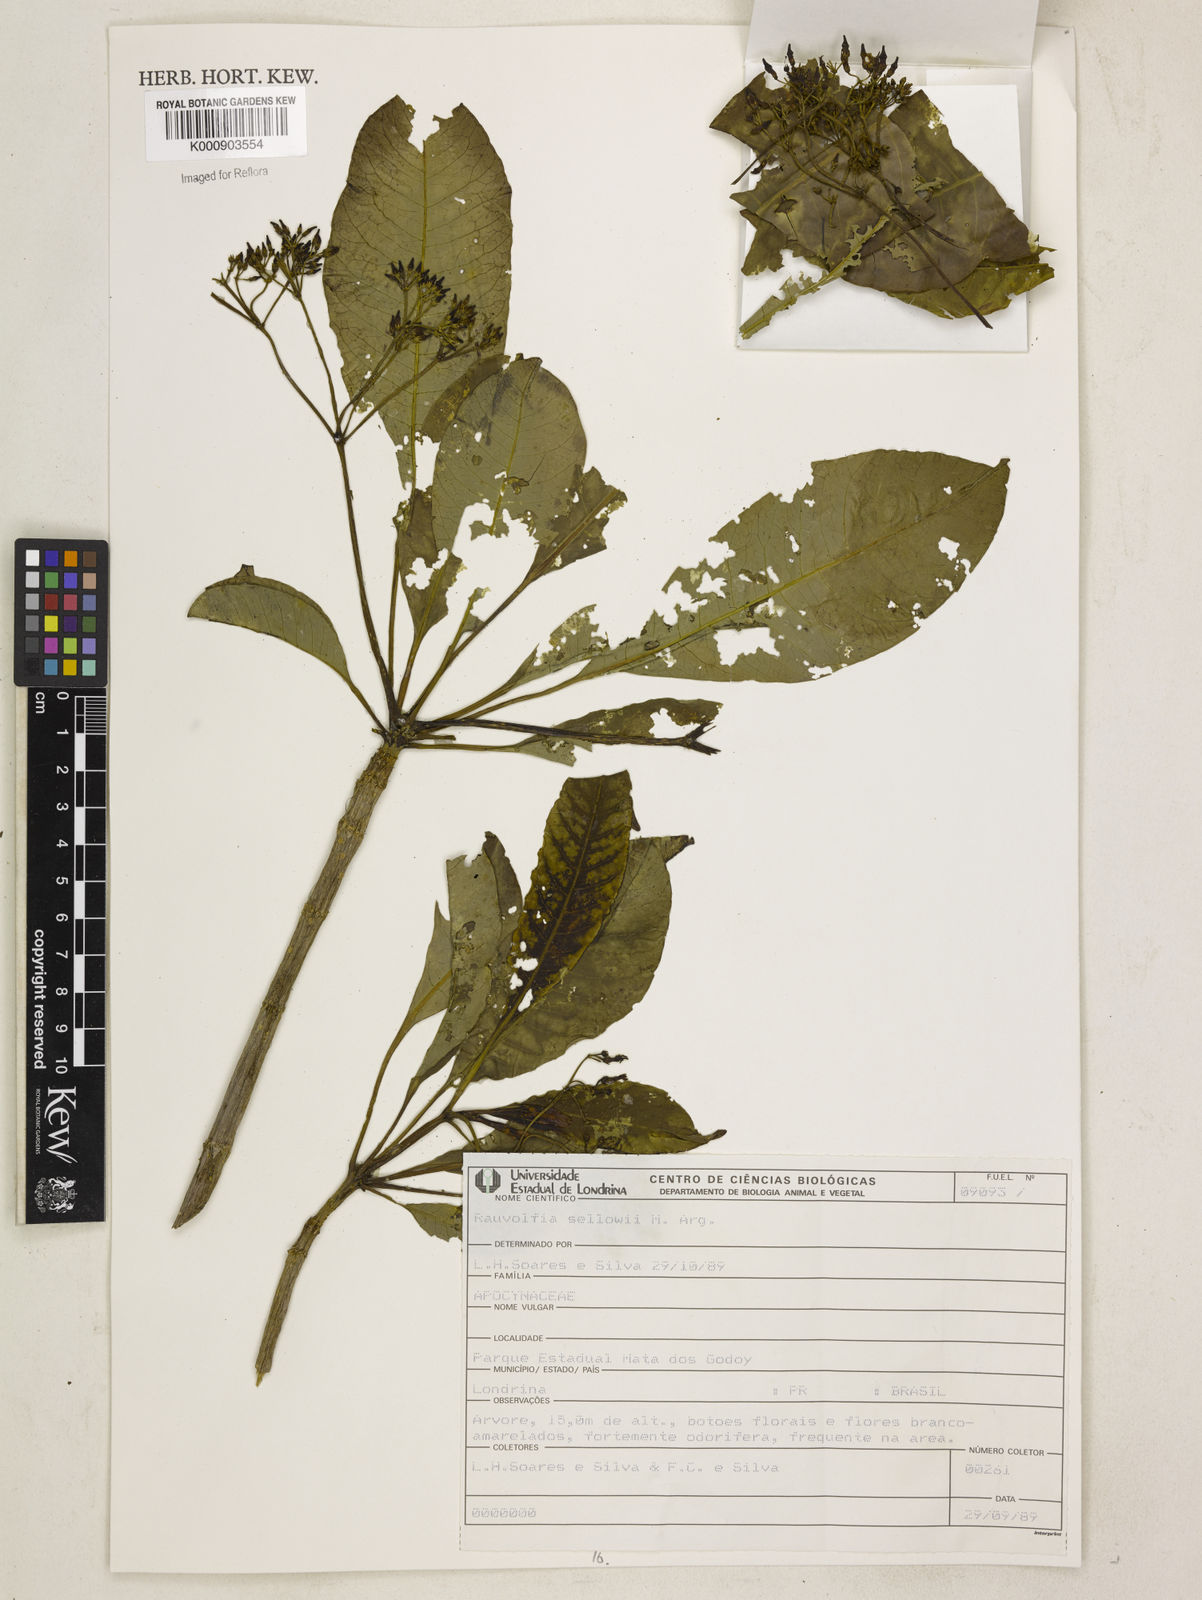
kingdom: Plantae
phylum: Tracheophyta
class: Magnoliopsida
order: Gentianales
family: Apocynaceae
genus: Rauvolfia
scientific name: Rauvolfia
